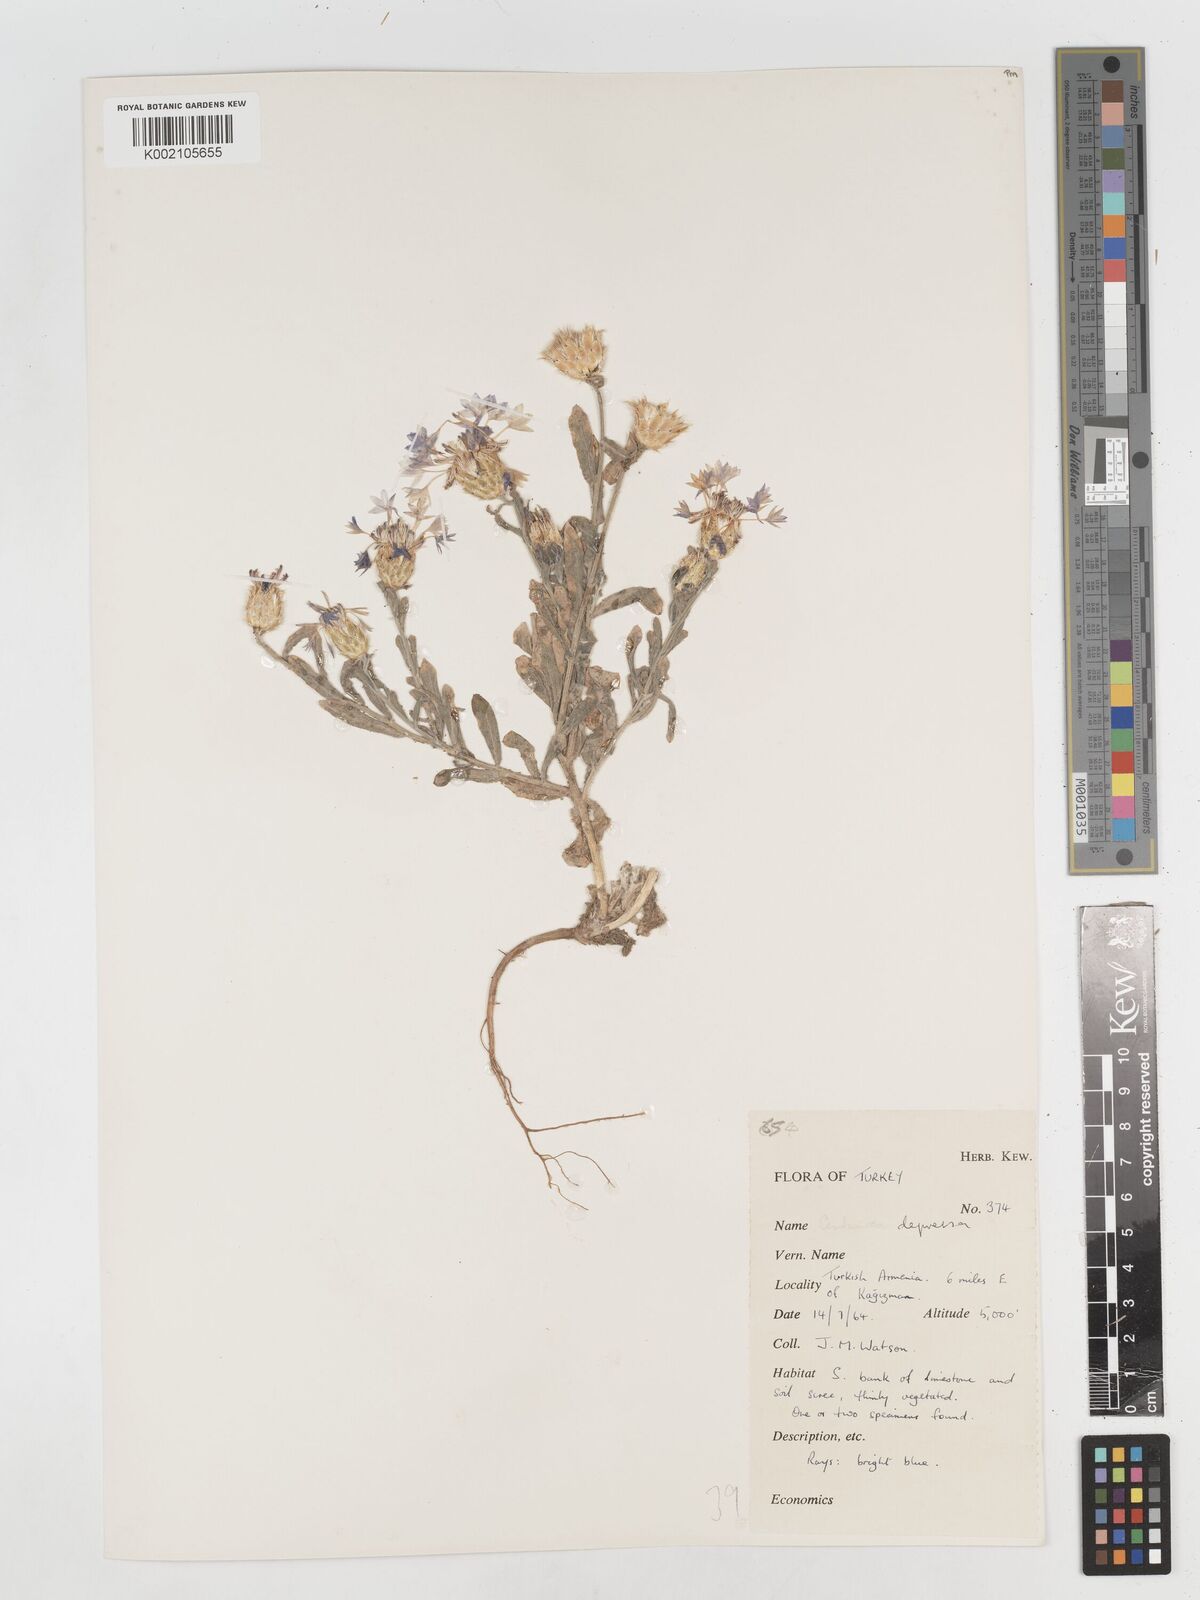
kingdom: Plantae
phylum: Tracheophyta
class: Magnoliopsida
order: Asterales
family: Asteraceae
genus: Centaurea
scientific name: Centaurea depressa
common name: Iranian knapweed
